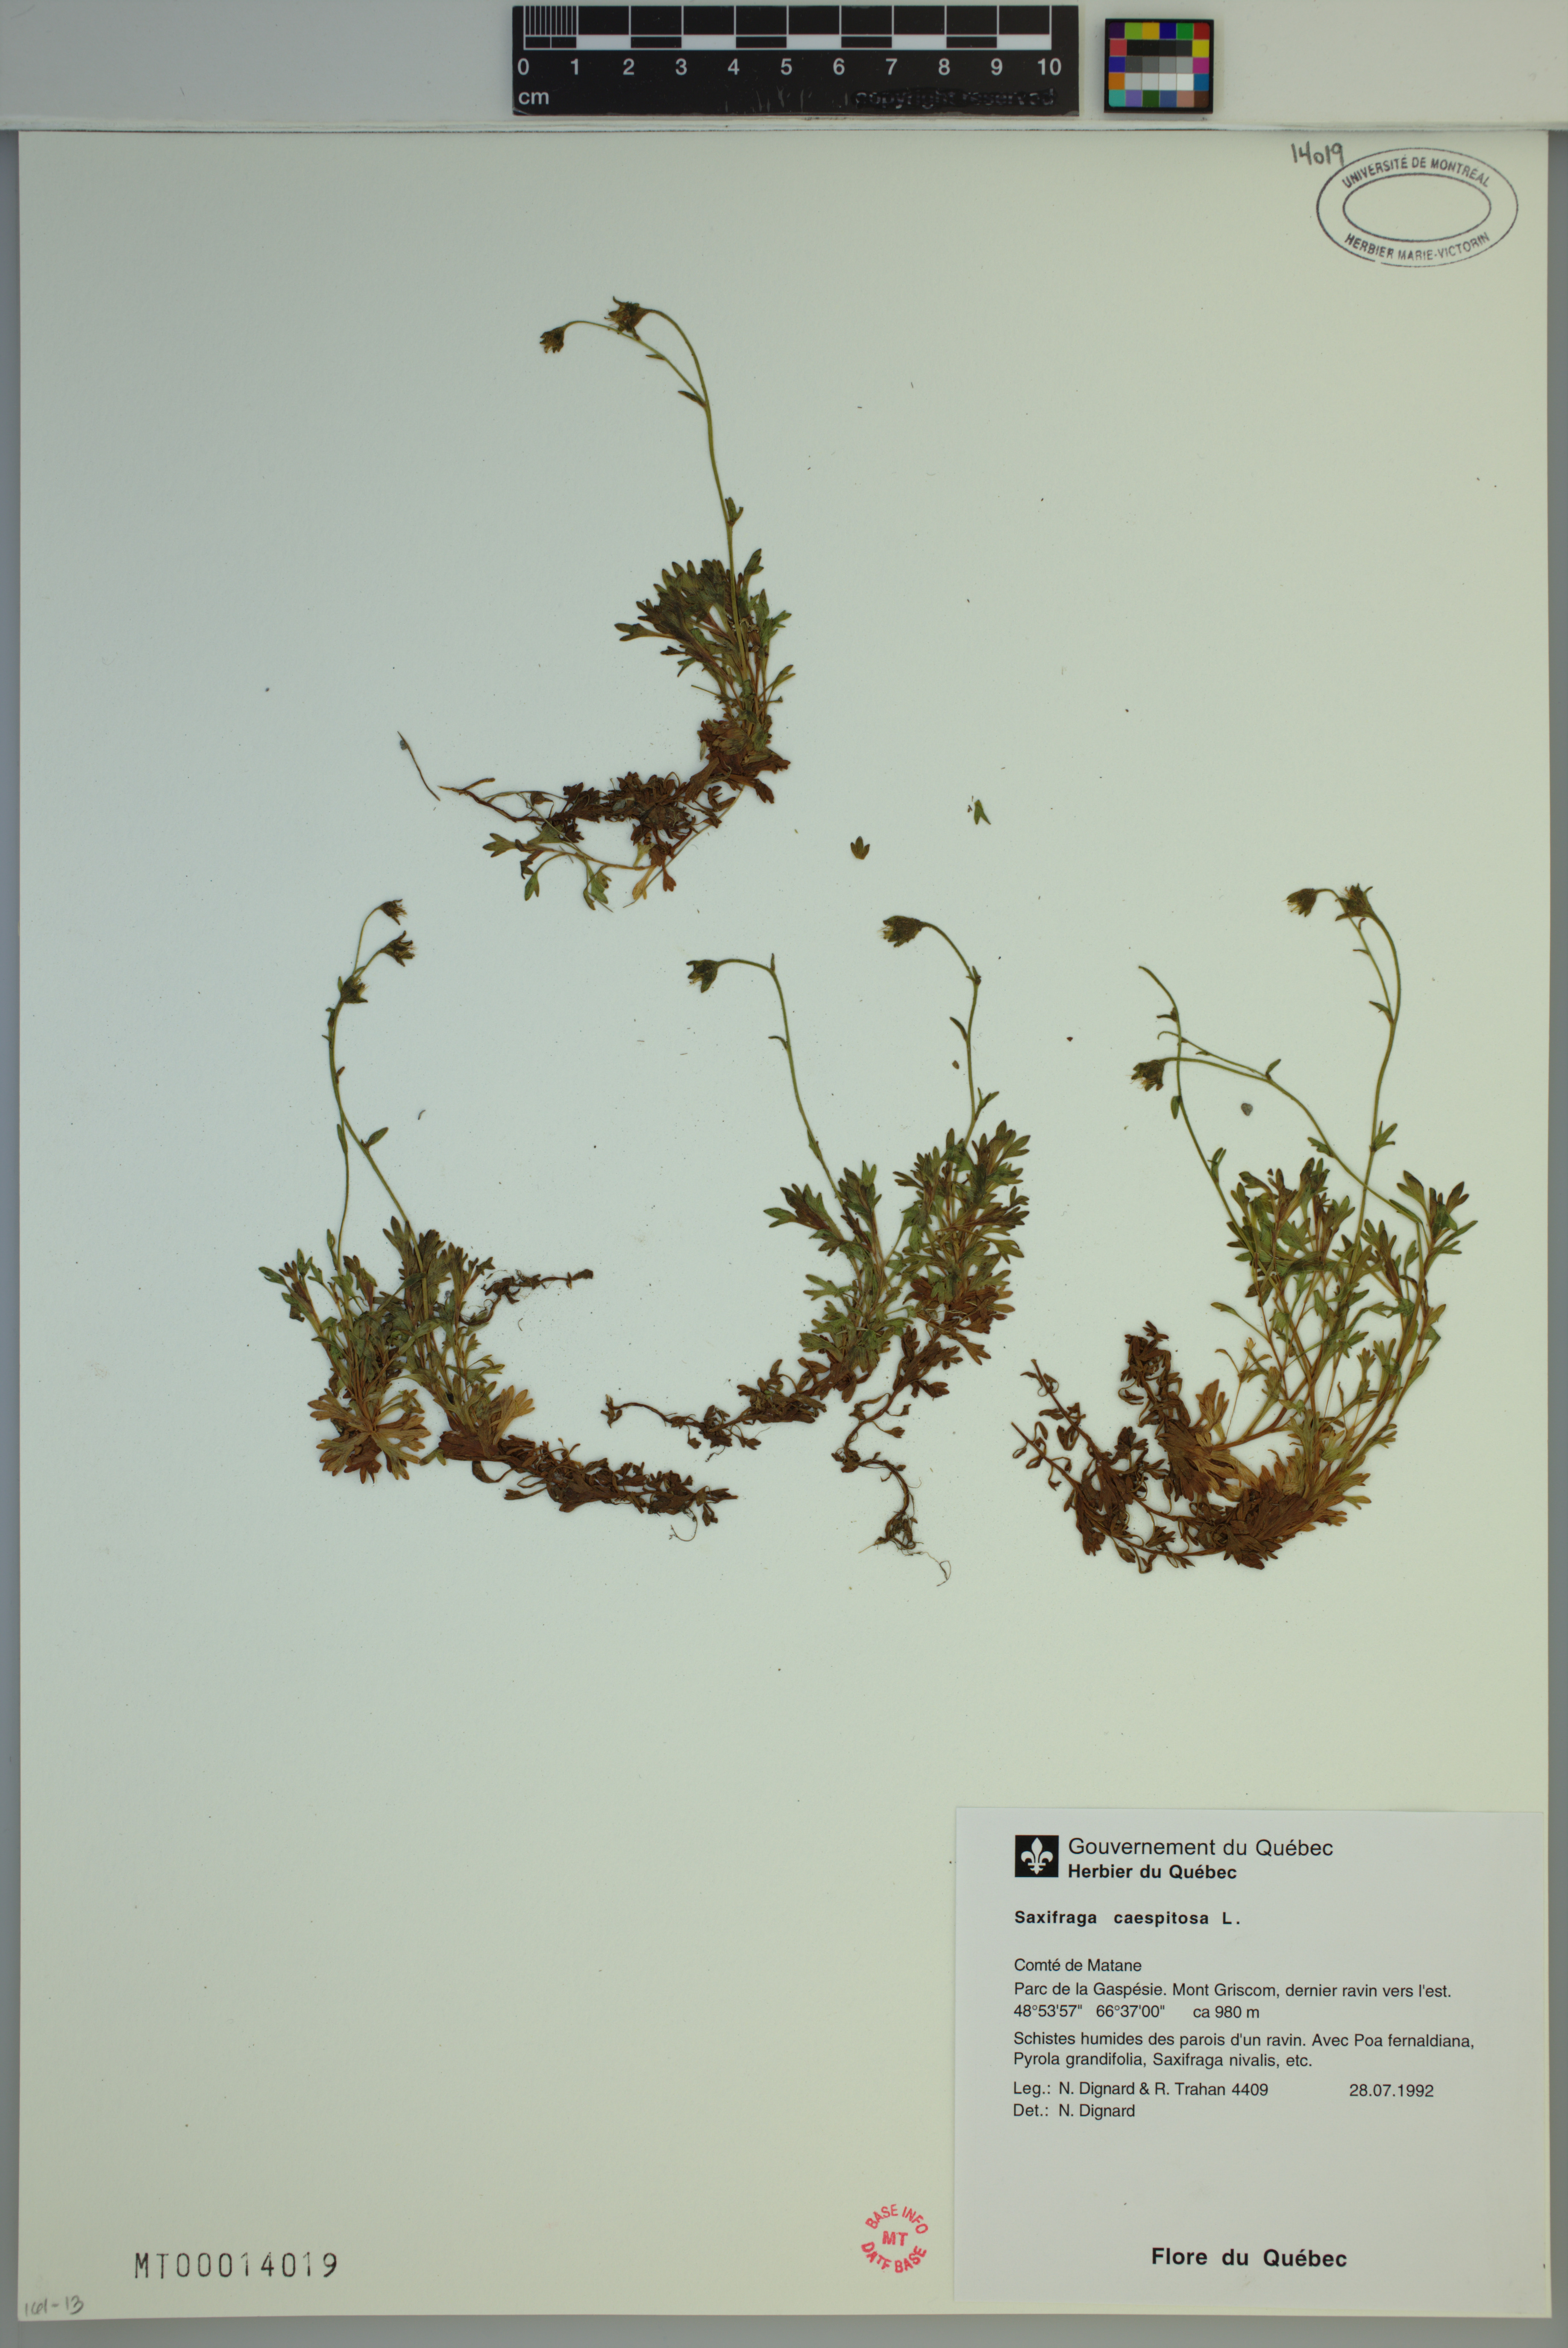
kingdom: Plantae
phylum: Tracheophyta
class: Magnoliopsida
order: Saxifragales
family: Saxifragaceae
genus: Saxifraga
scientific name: Saxifraga cespitosa
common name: Tufted saxifrage
